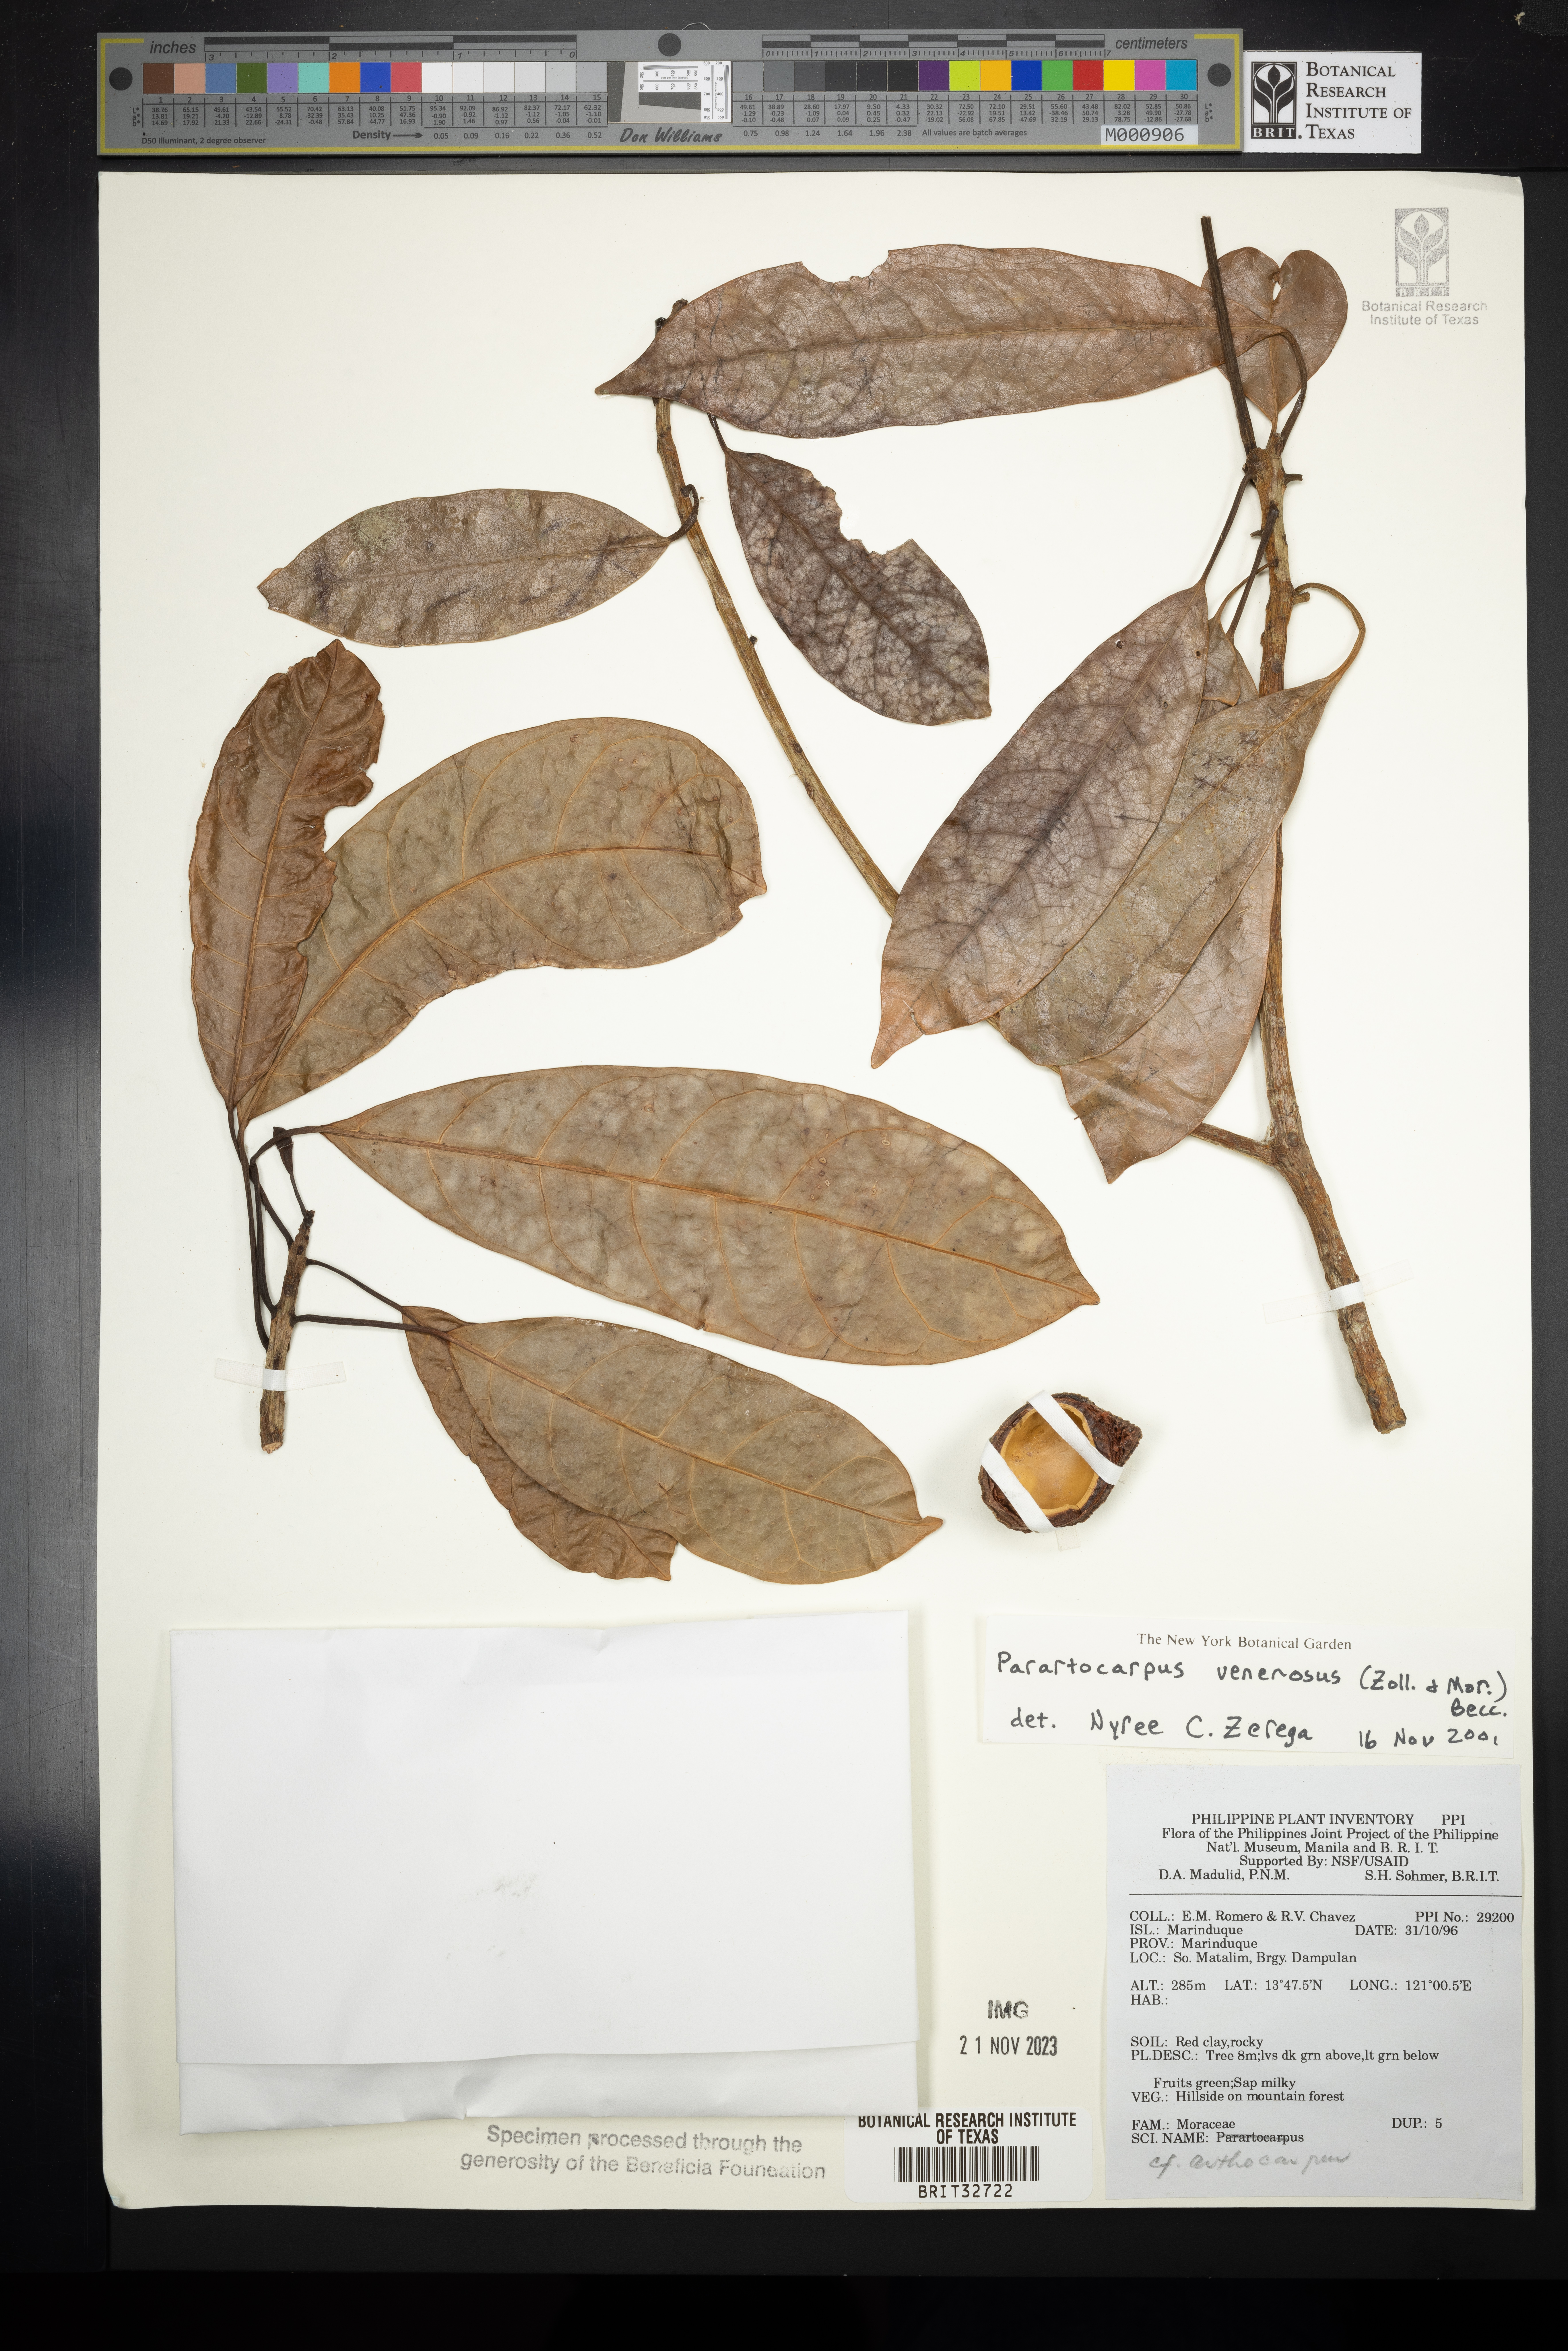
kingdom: Plantae
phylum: Tracheophyta
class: Magnoliopsida
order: Rosales
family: Moraceae
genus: Parartocarpus
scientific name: Parartocarpus venenosa
